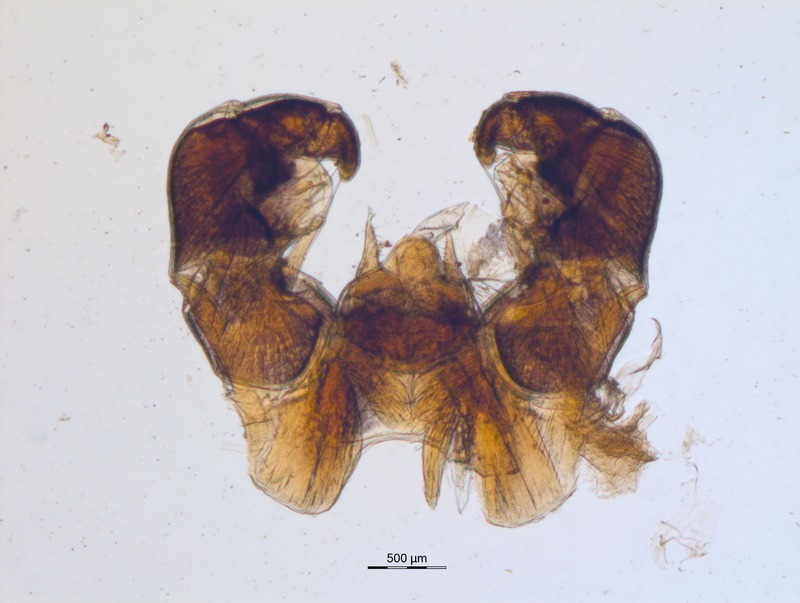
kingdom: Animalia
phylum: Arthropoda
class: Diplopoda
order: Glomerida
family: Glomeridae
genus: Glomeris
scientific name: Glomeris occidentalis
